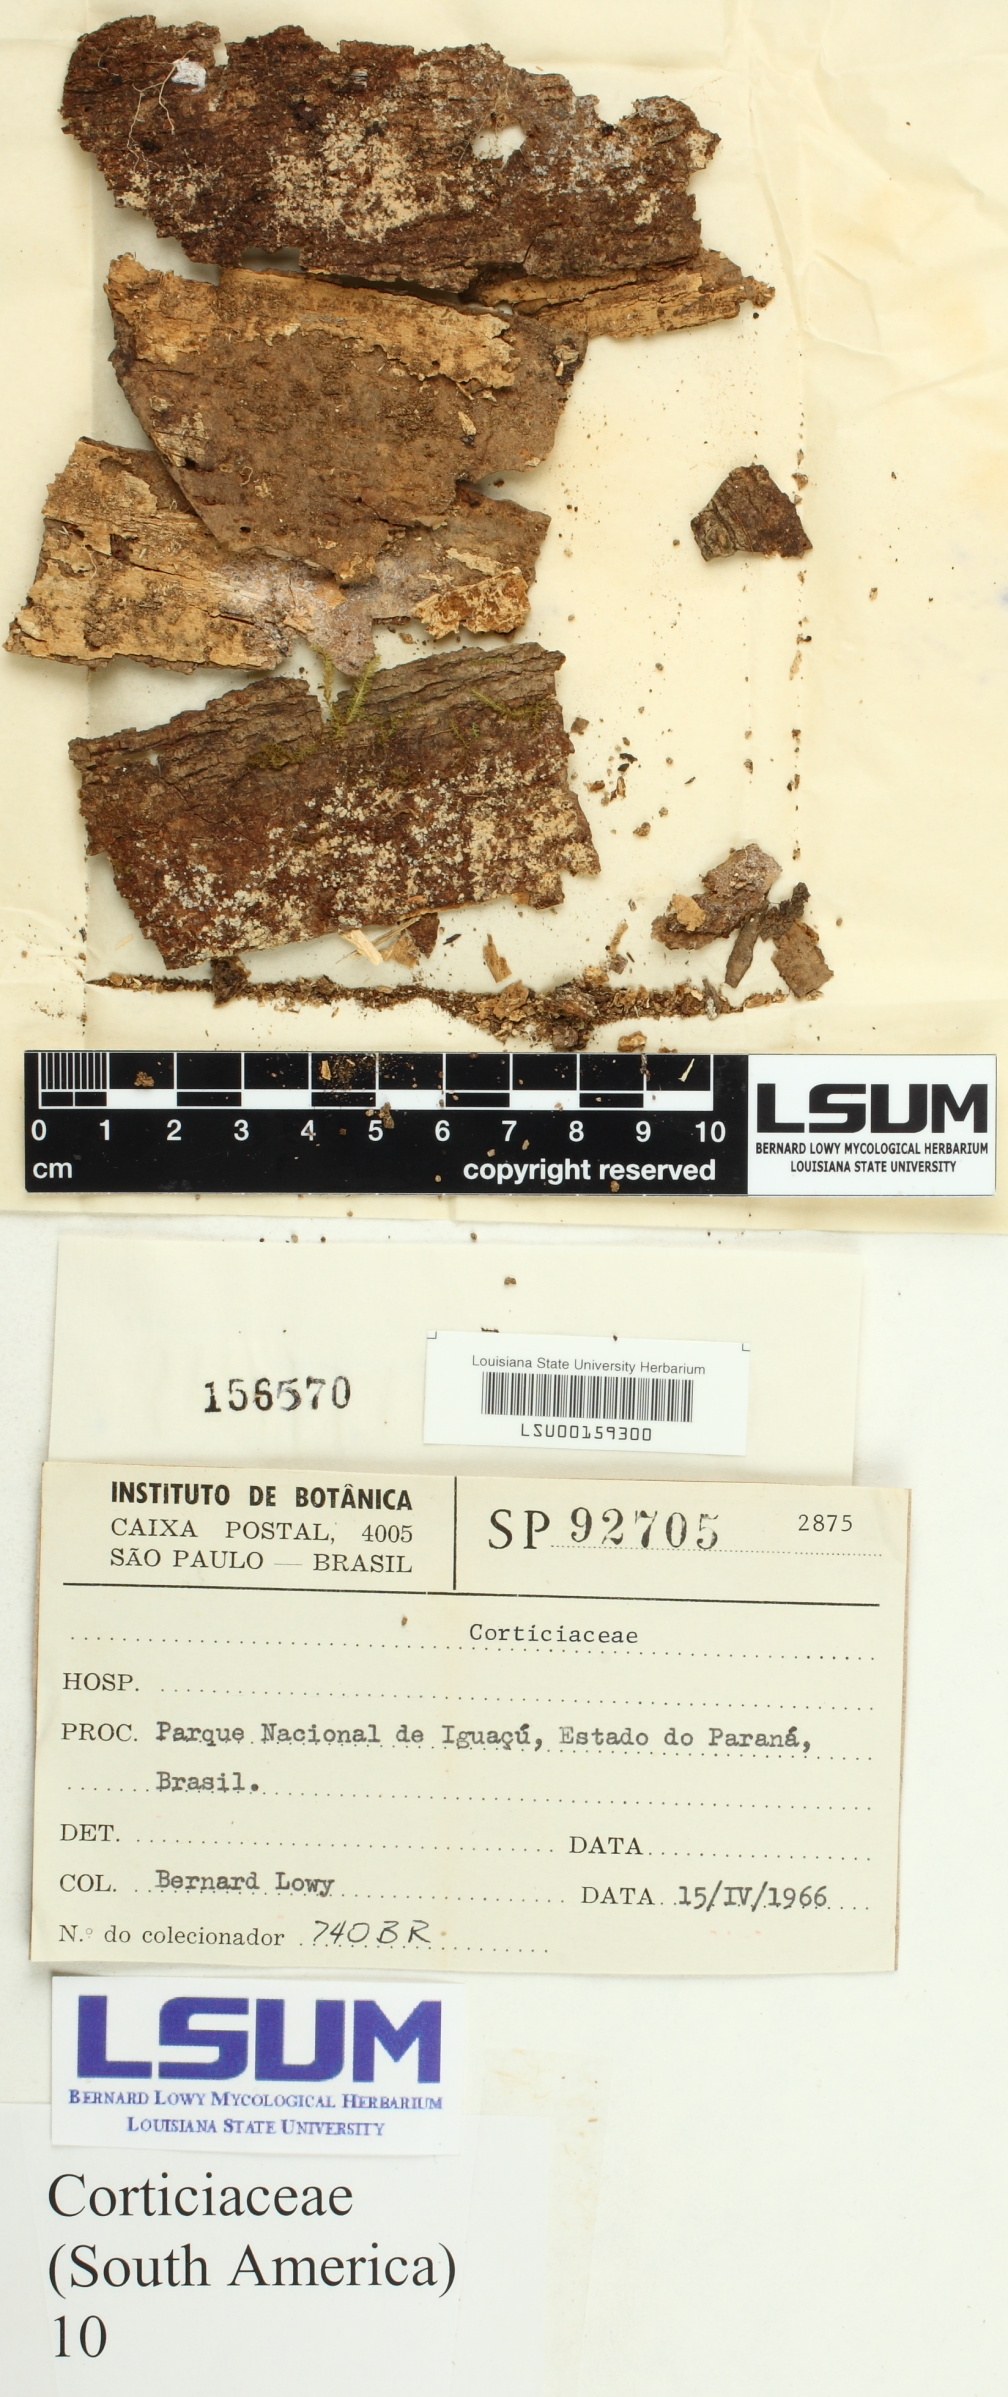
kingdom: Fungi
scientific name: Fungi
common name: Fungi
